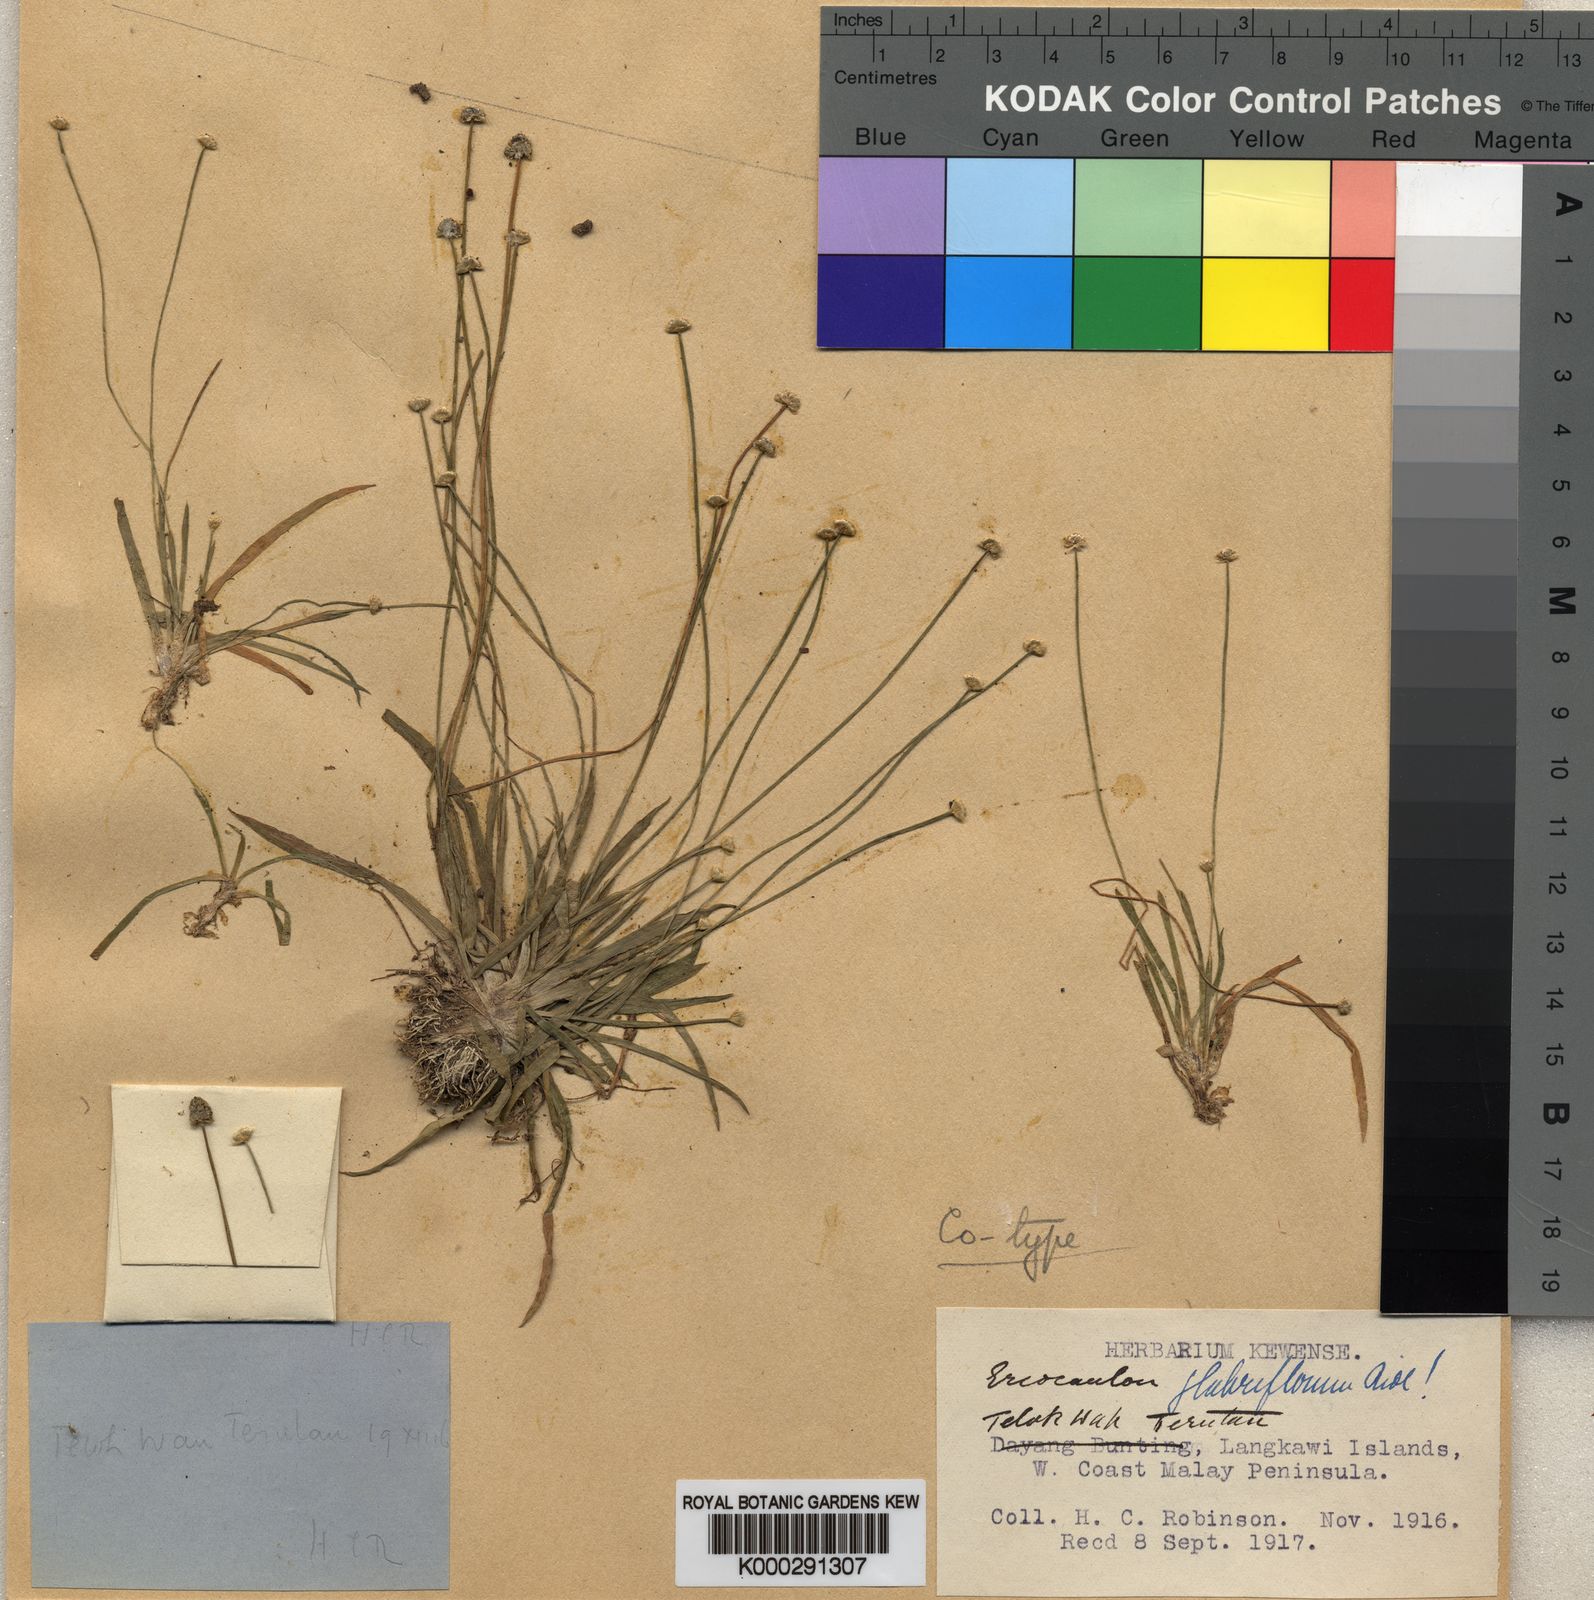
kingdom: Plantae
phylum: Tracheophyta
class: Liliopsida
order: Poales
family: Eriocaulaceae
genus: Eriocaulon
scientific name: Eriocaulon truncatum
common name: Short pipe-wort
